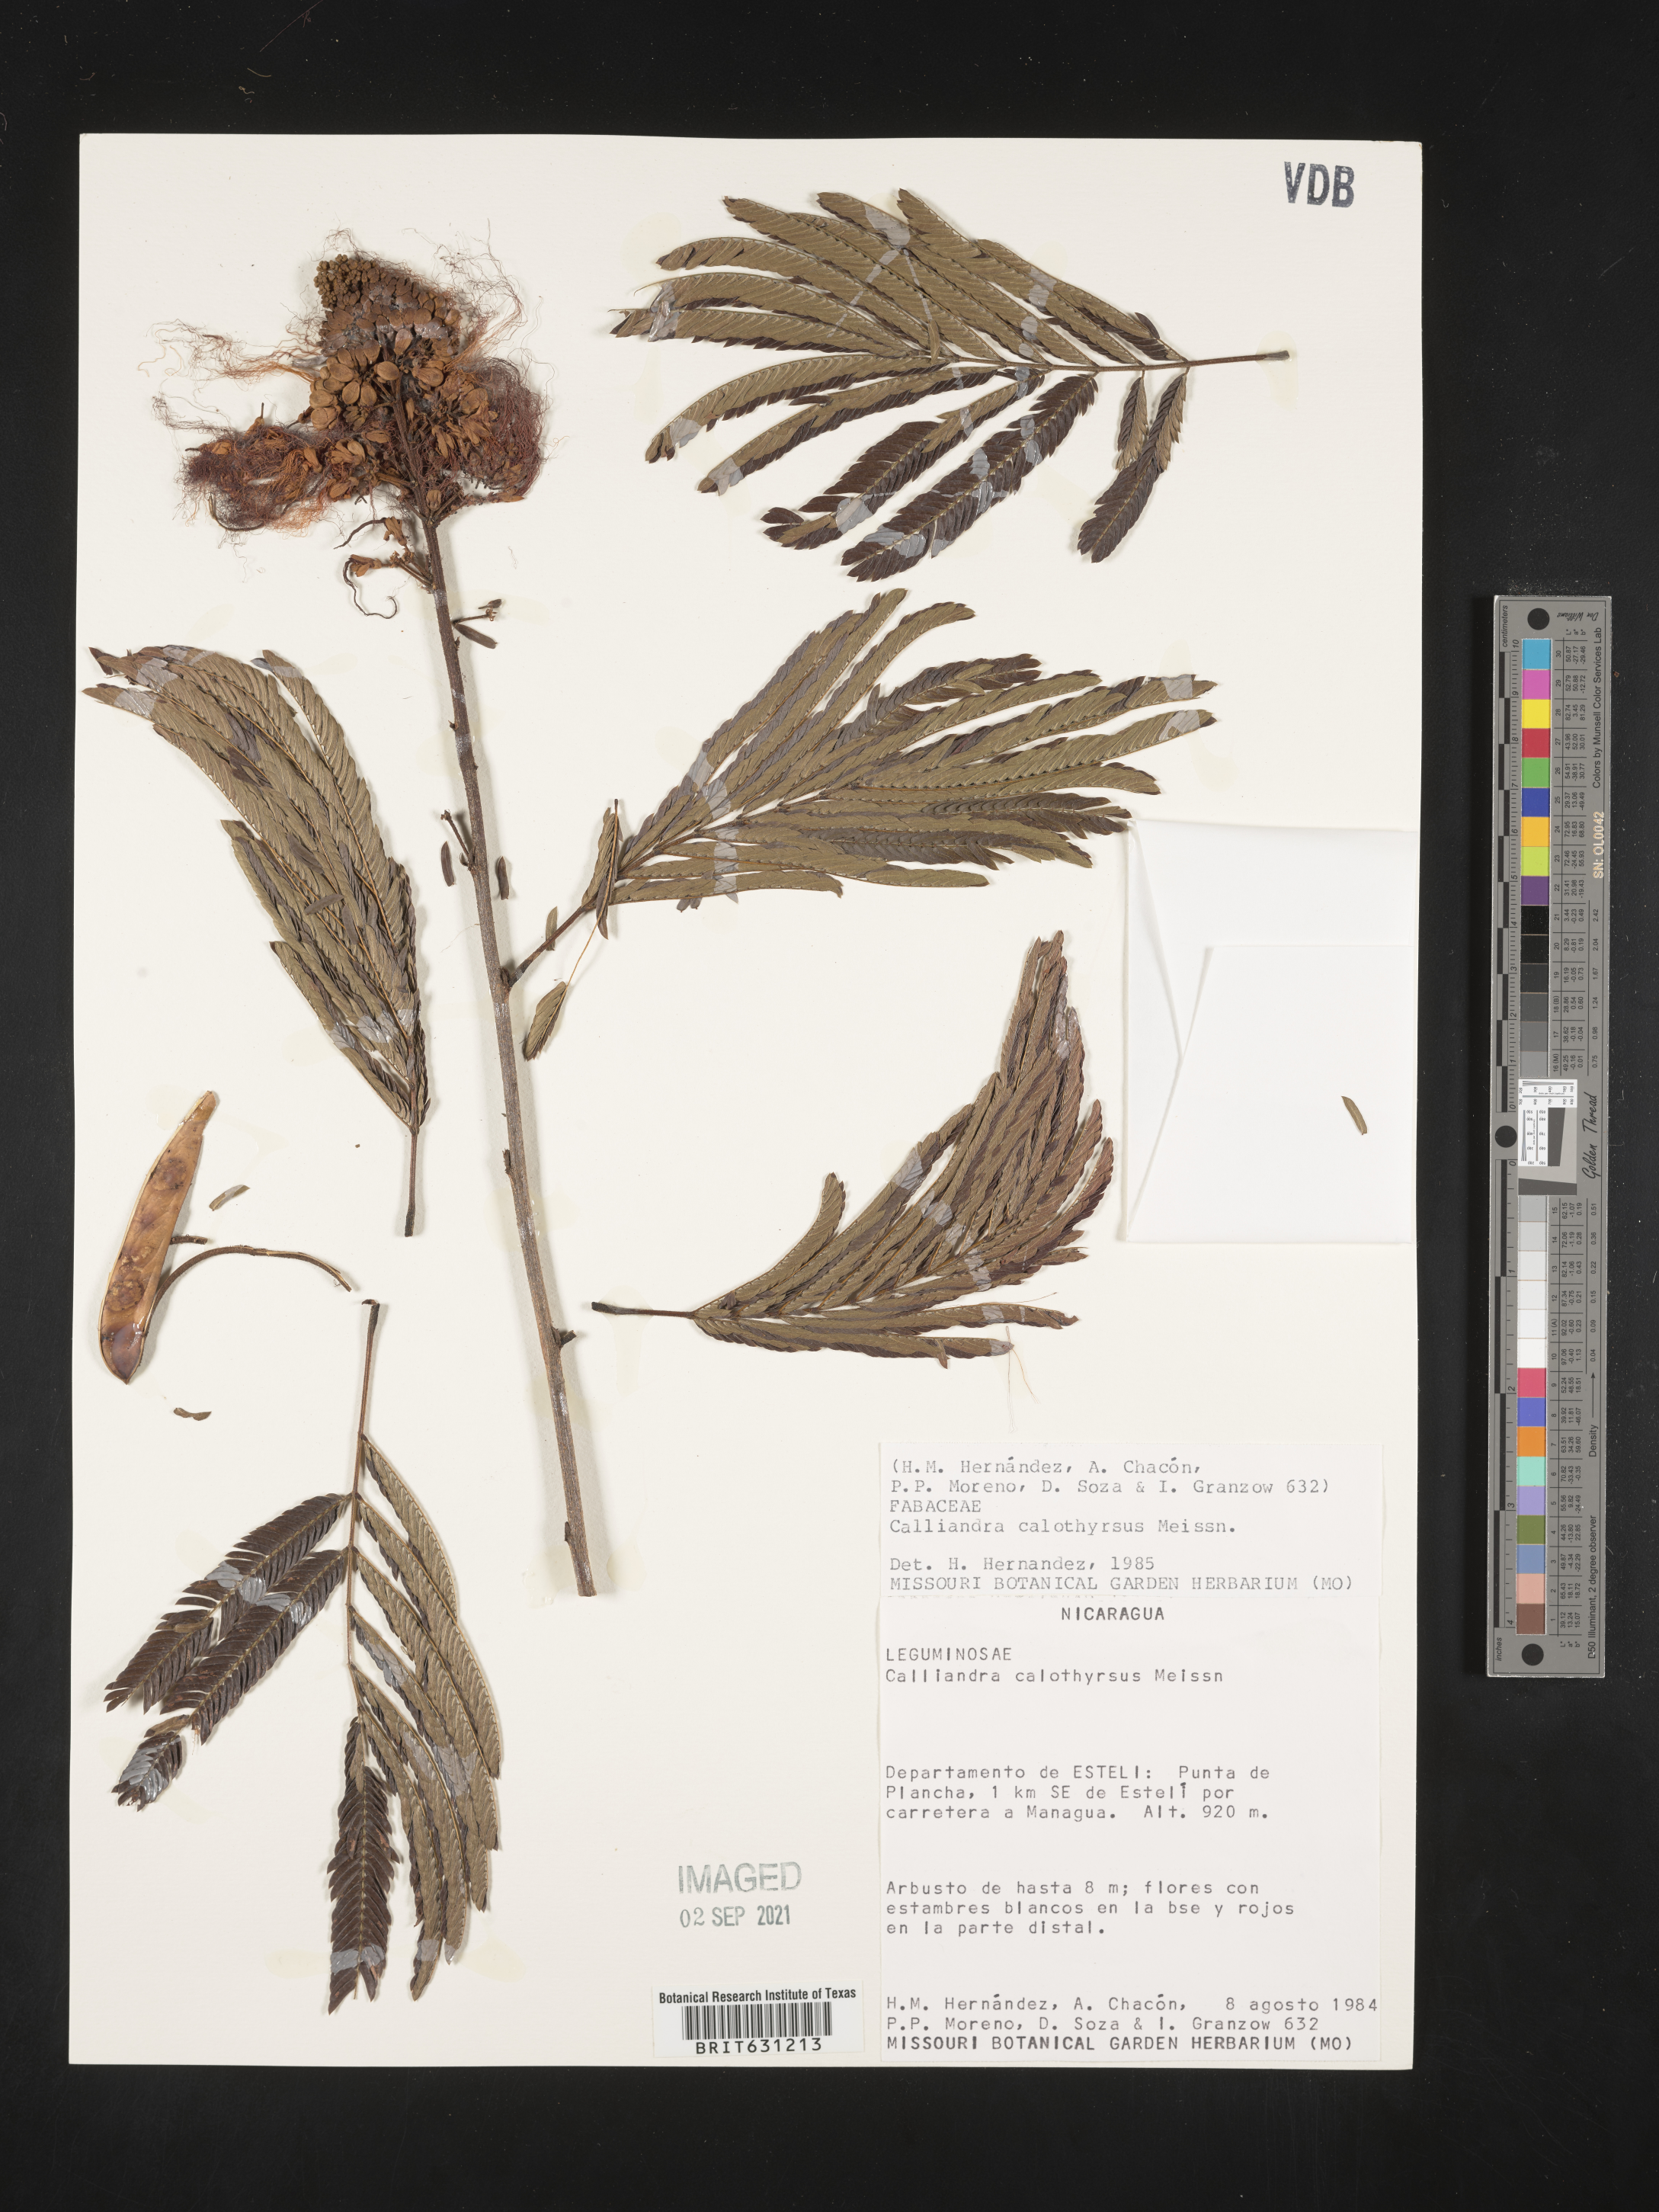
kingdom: Plantae
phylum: Tracheophyta
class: Magnoliopsida
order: Fabales
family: Fabaceae
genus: Calliandra
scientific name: Calliandra houstoniana
